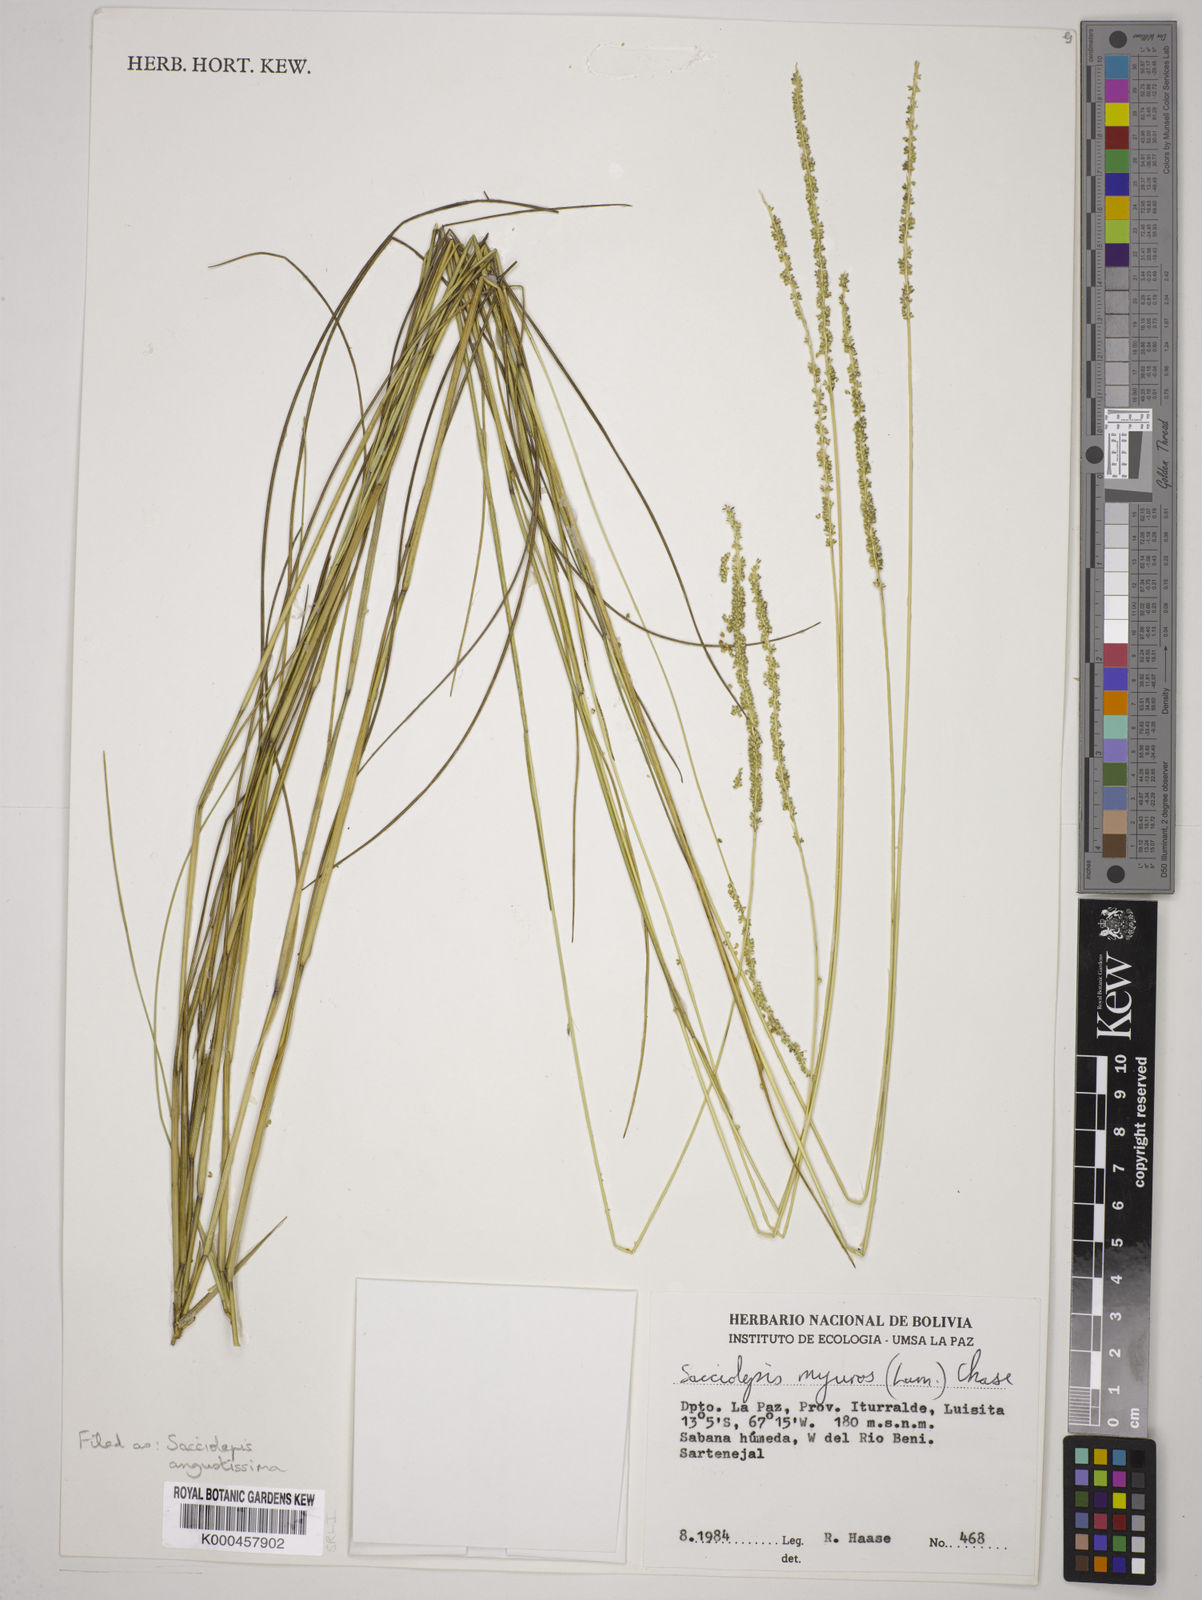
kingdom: Plantae
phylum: Tracheophyta
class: Liliopsida
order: Poales
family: Poaceae
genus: Sacciolepis
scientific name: Sacciolepis angustissima
